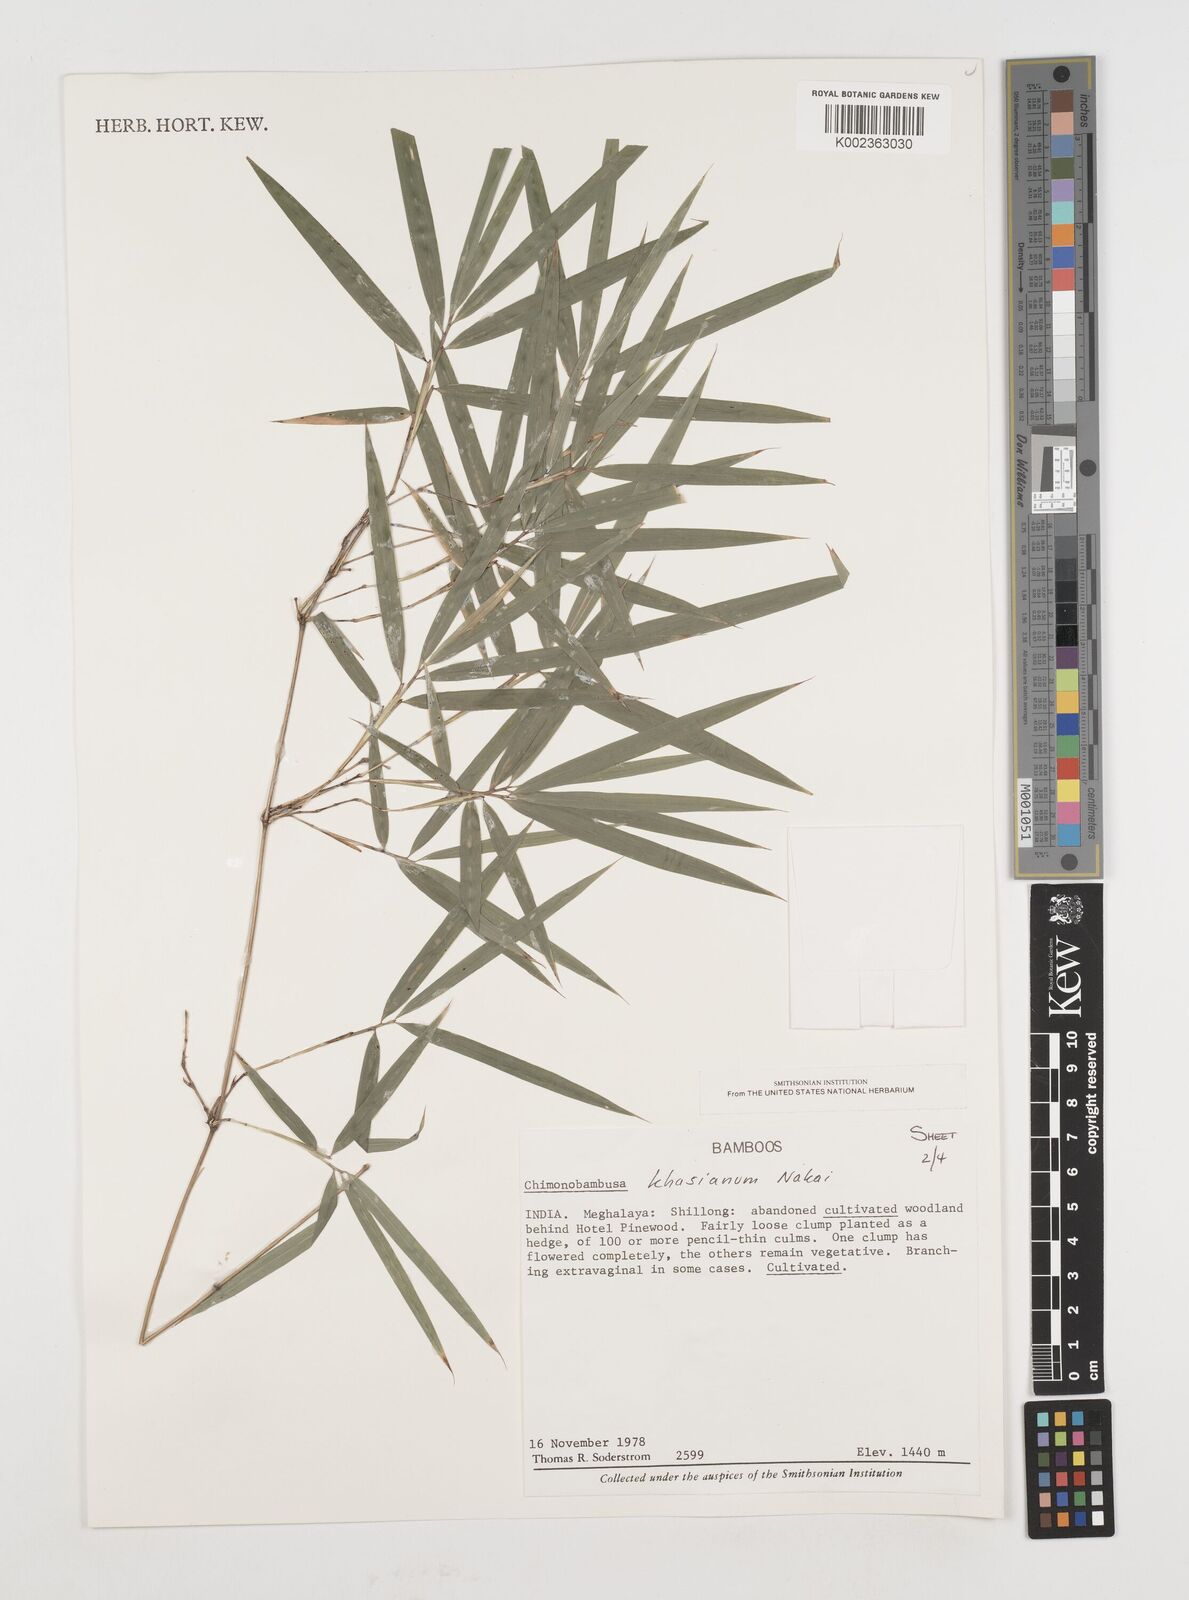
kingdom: Plantae
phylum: Tracheophyta
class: Liliopsida
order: Poales
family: Poaceae
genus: Drepanostachyum
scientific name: Drepanostachyum khasianum
